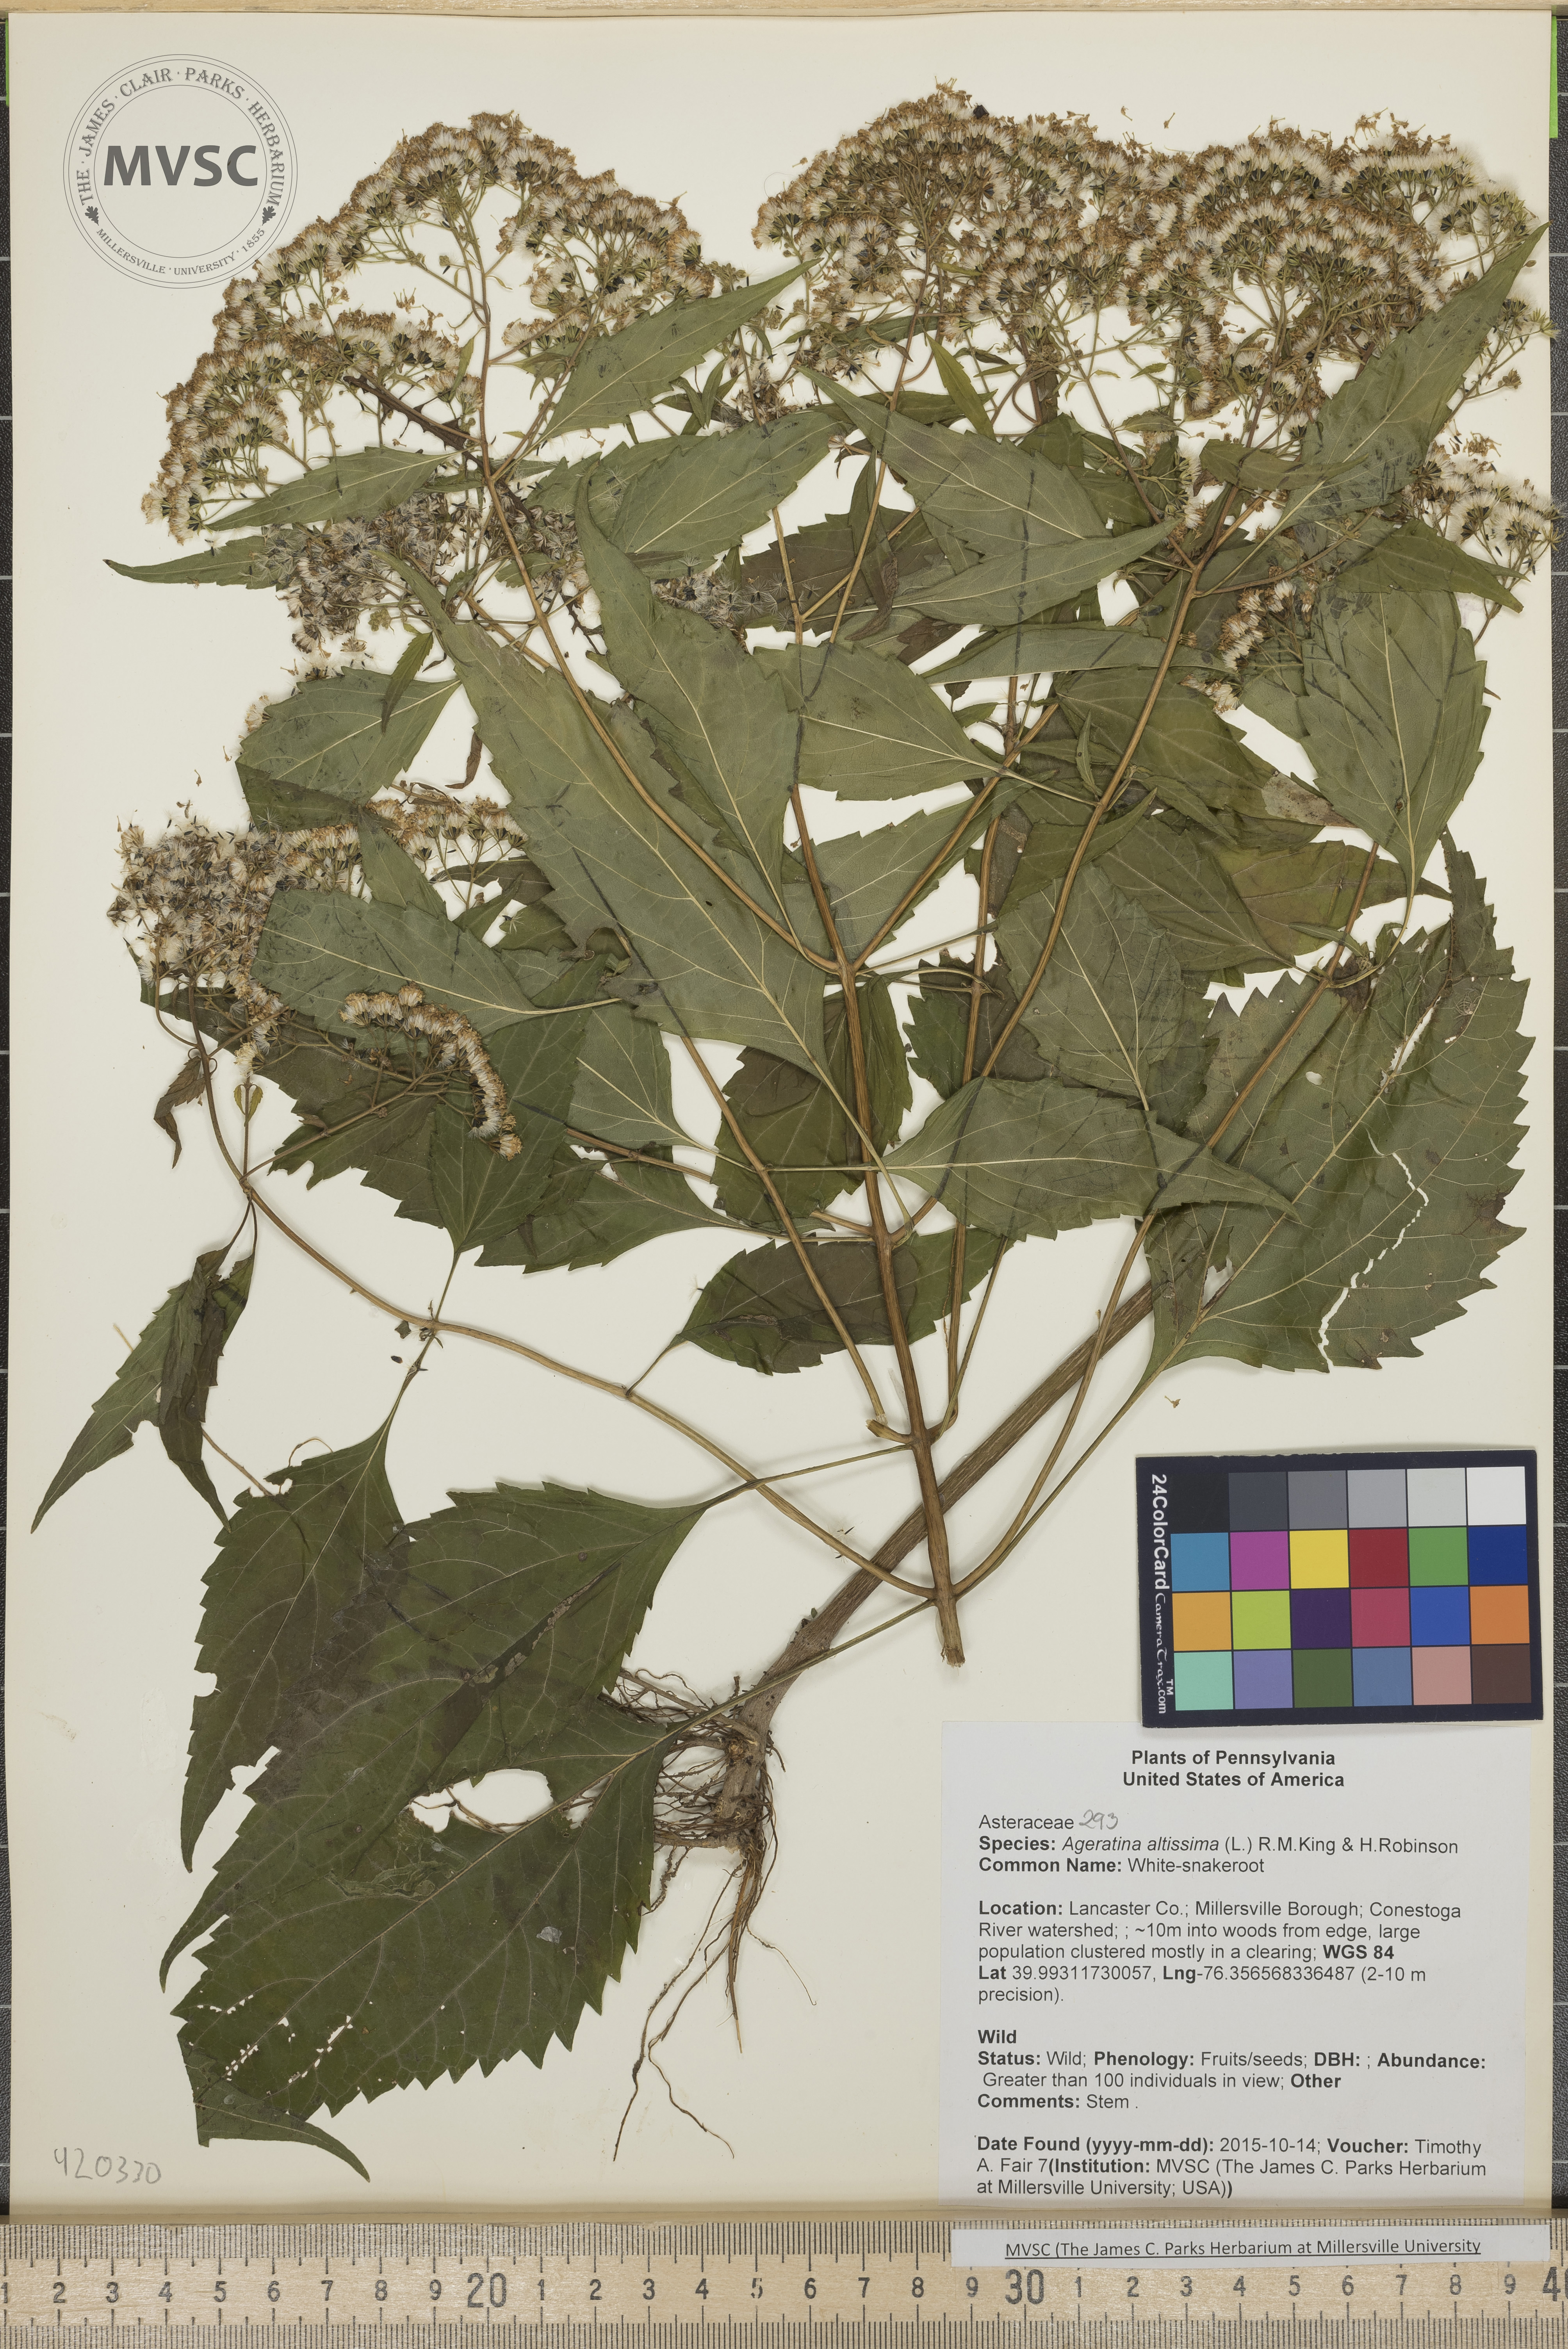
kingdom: Plantae
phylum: Tracheophyta
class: Magnoliopsida
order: Asterales
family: Asteraceae
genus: Ageratina
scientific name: Ageratina altissima
